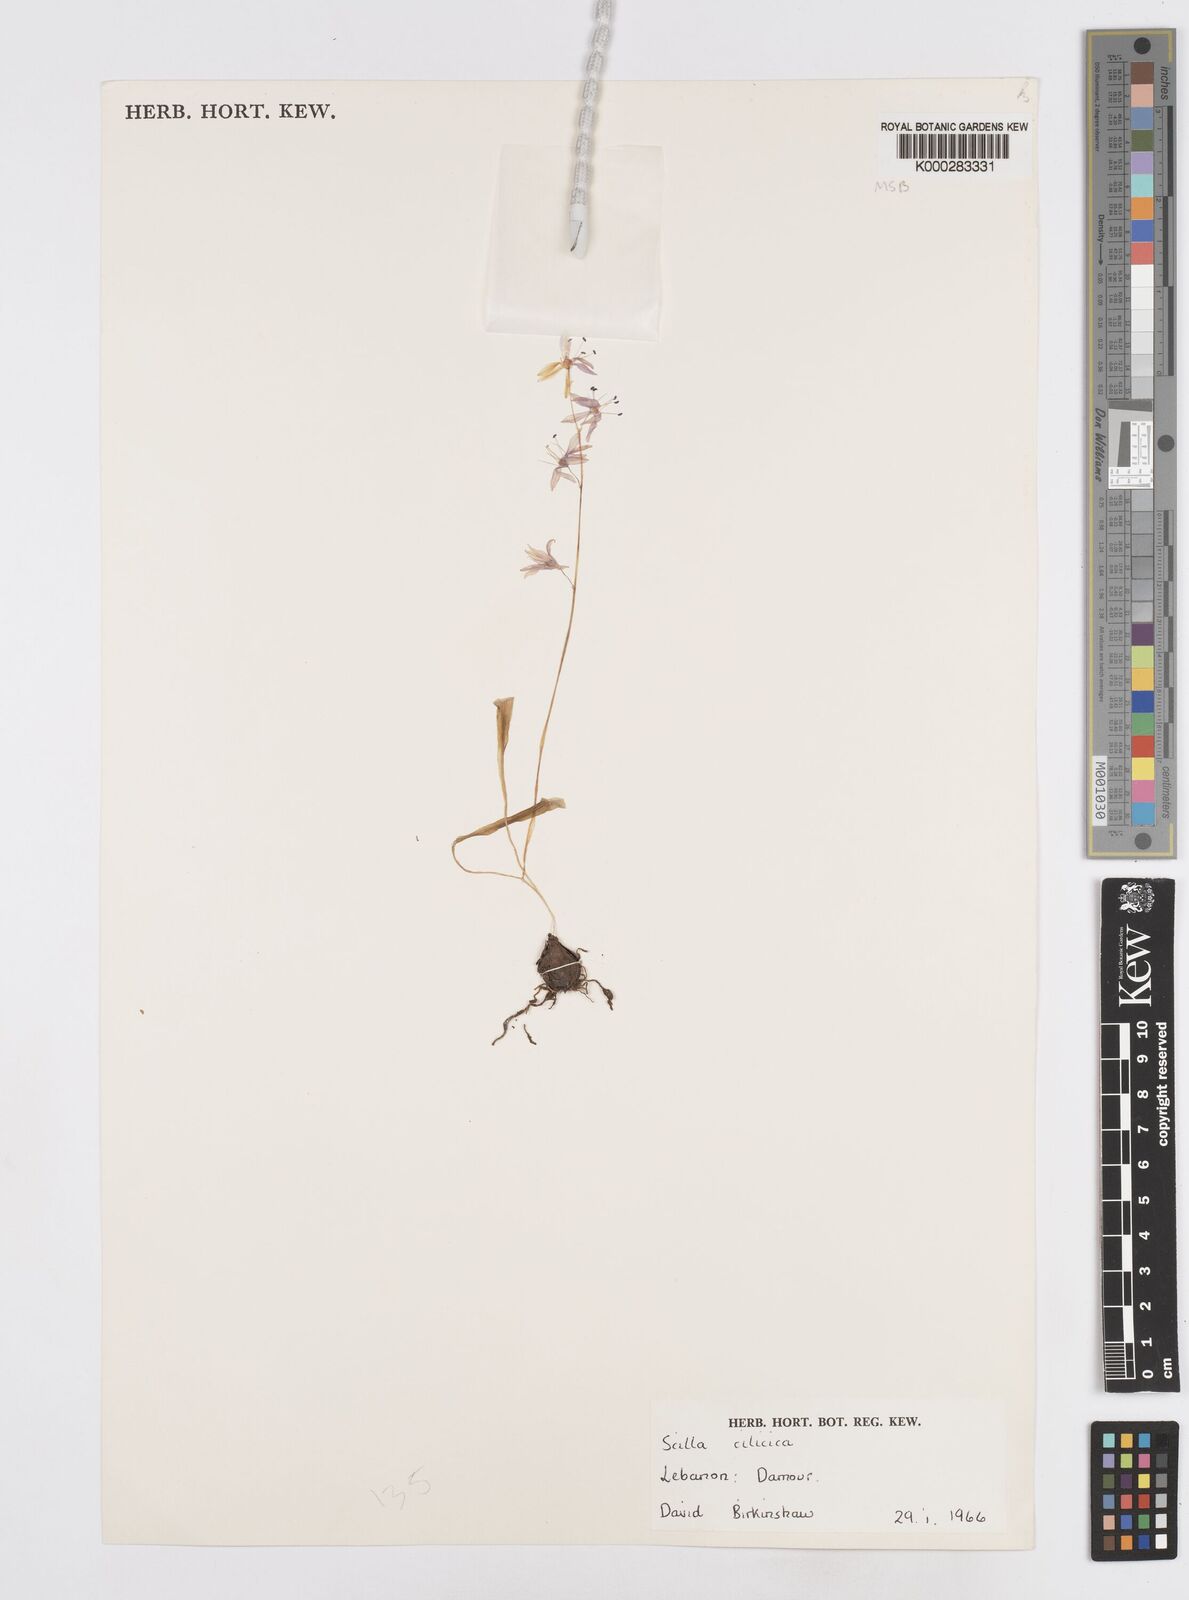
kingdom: Plantae
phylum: Tracheophyta
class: Liliopsida
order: Asparagales
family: Asparagaceae
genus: Scilla
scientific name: Scilla cilicica
